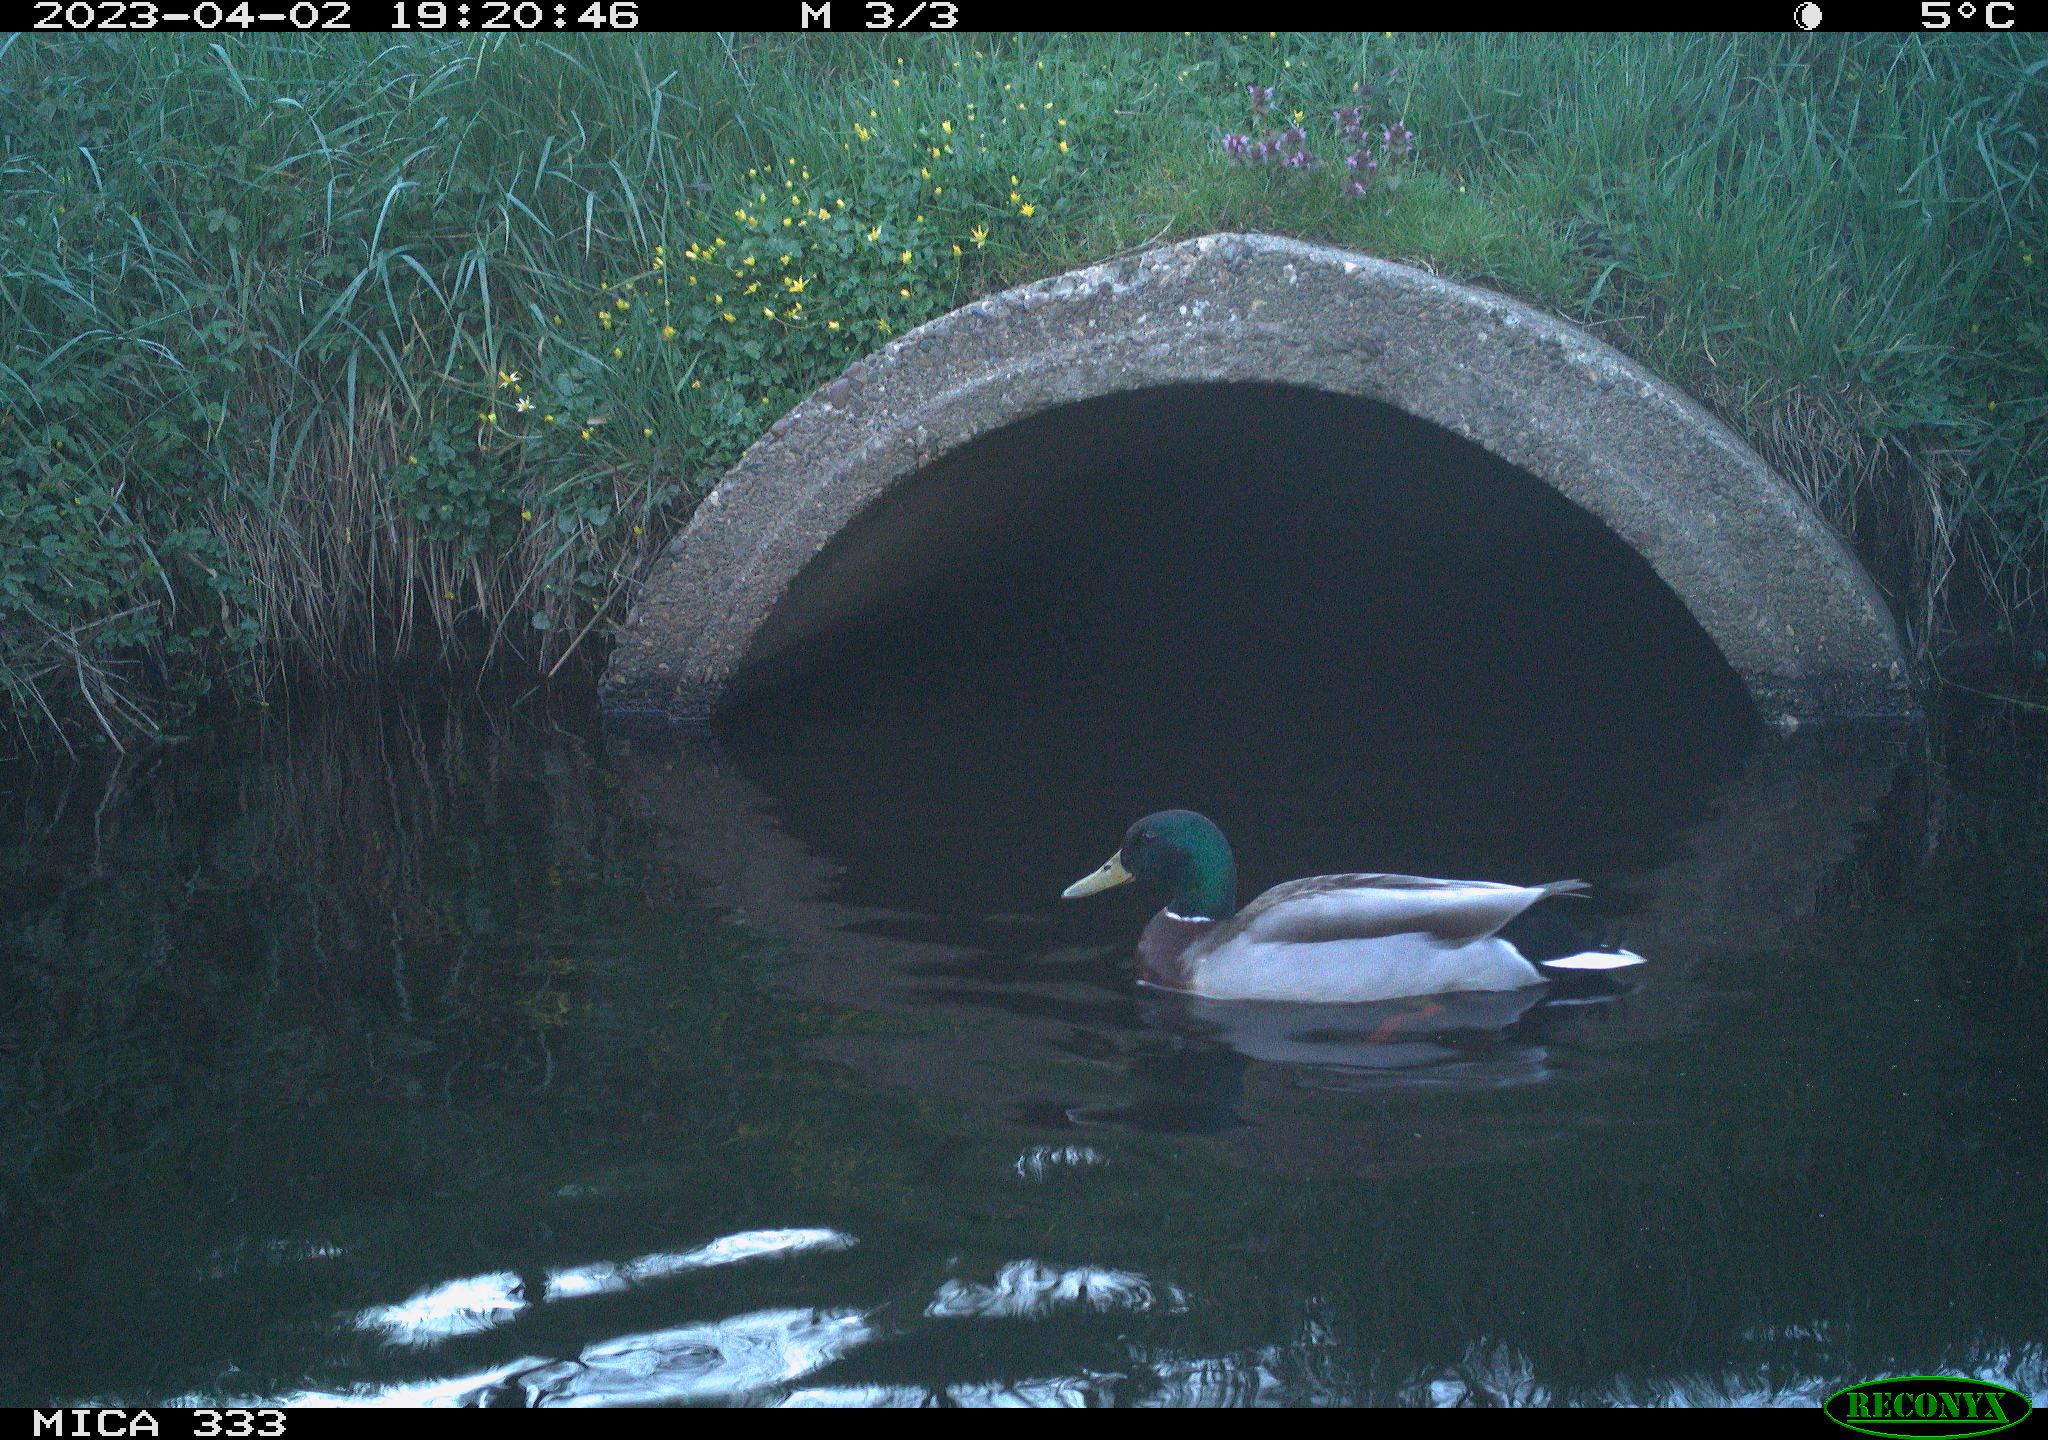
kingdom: Animalia
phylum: Chordata
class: Aves
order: Anseriformes
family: Anatidae
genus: Anas
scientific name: Anas platyrhynchos
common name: Mallard
